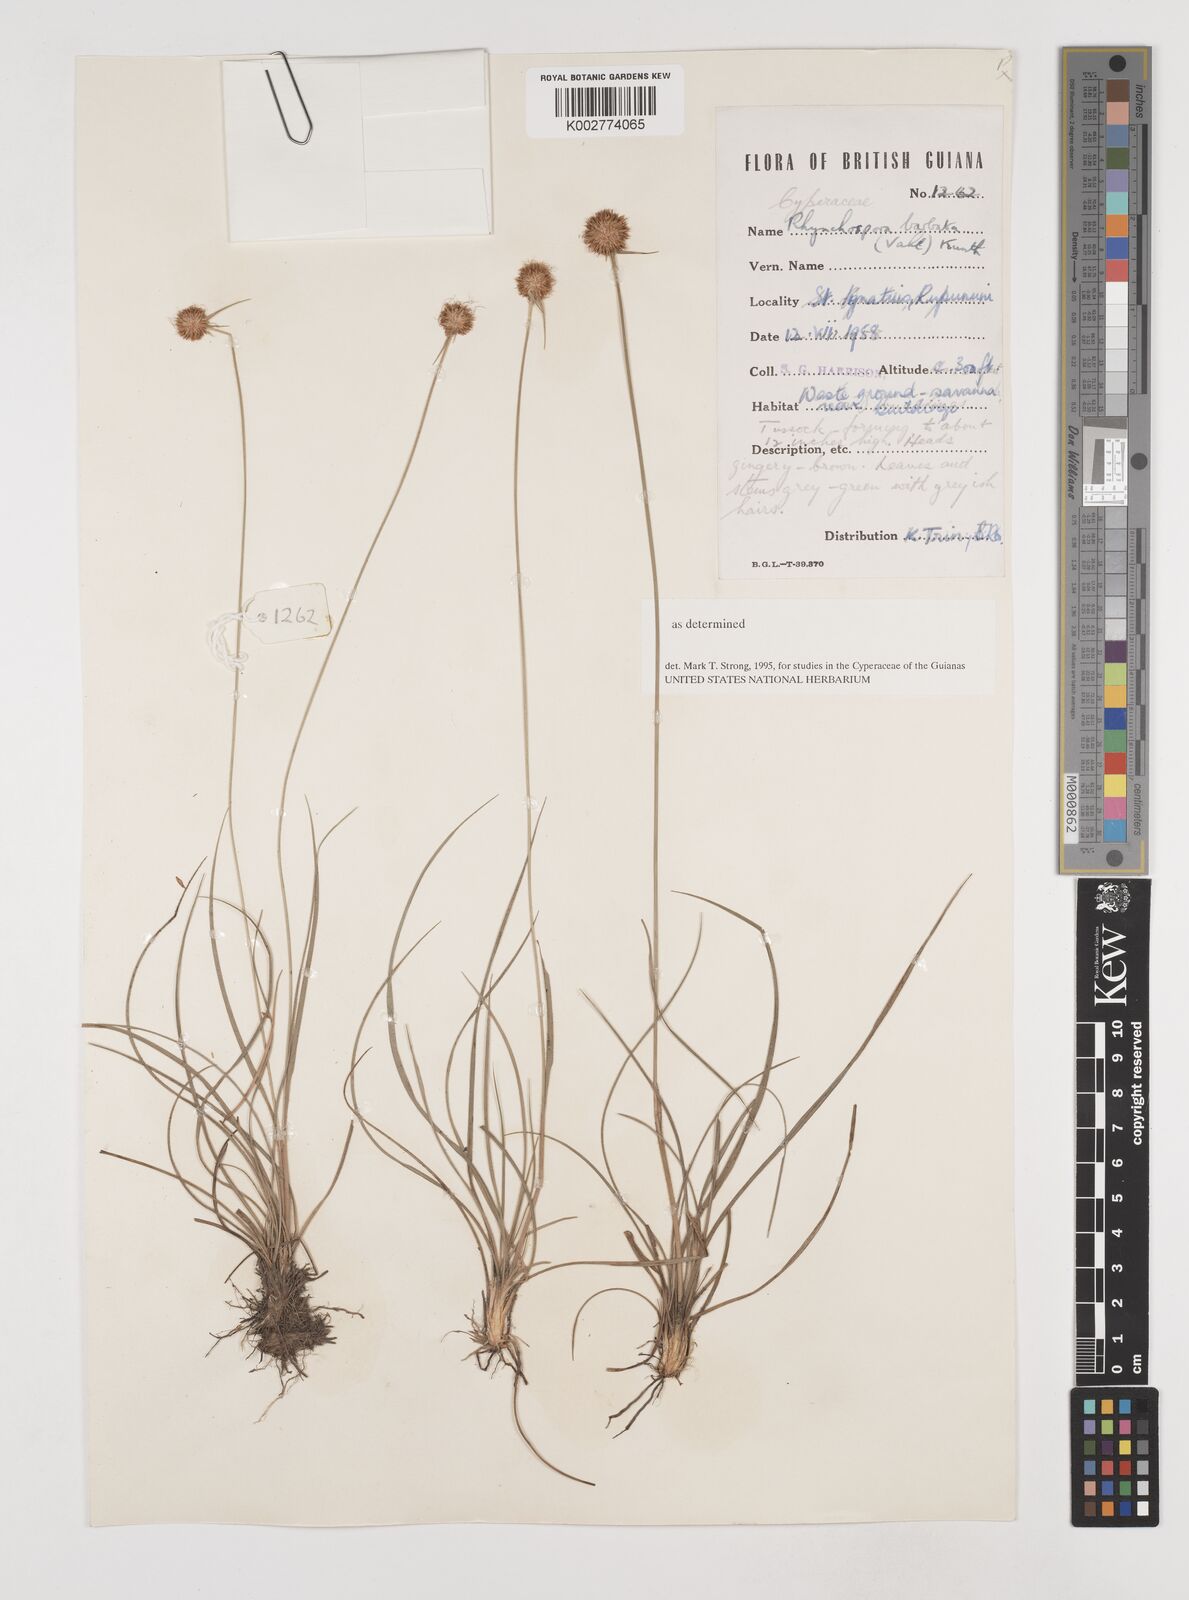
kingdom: Plantae
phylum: Tracheophyta
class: Liliopsida
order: Poales
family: Cyperaceae
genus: Rhynchospora
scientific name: Rhynchospora barbata
